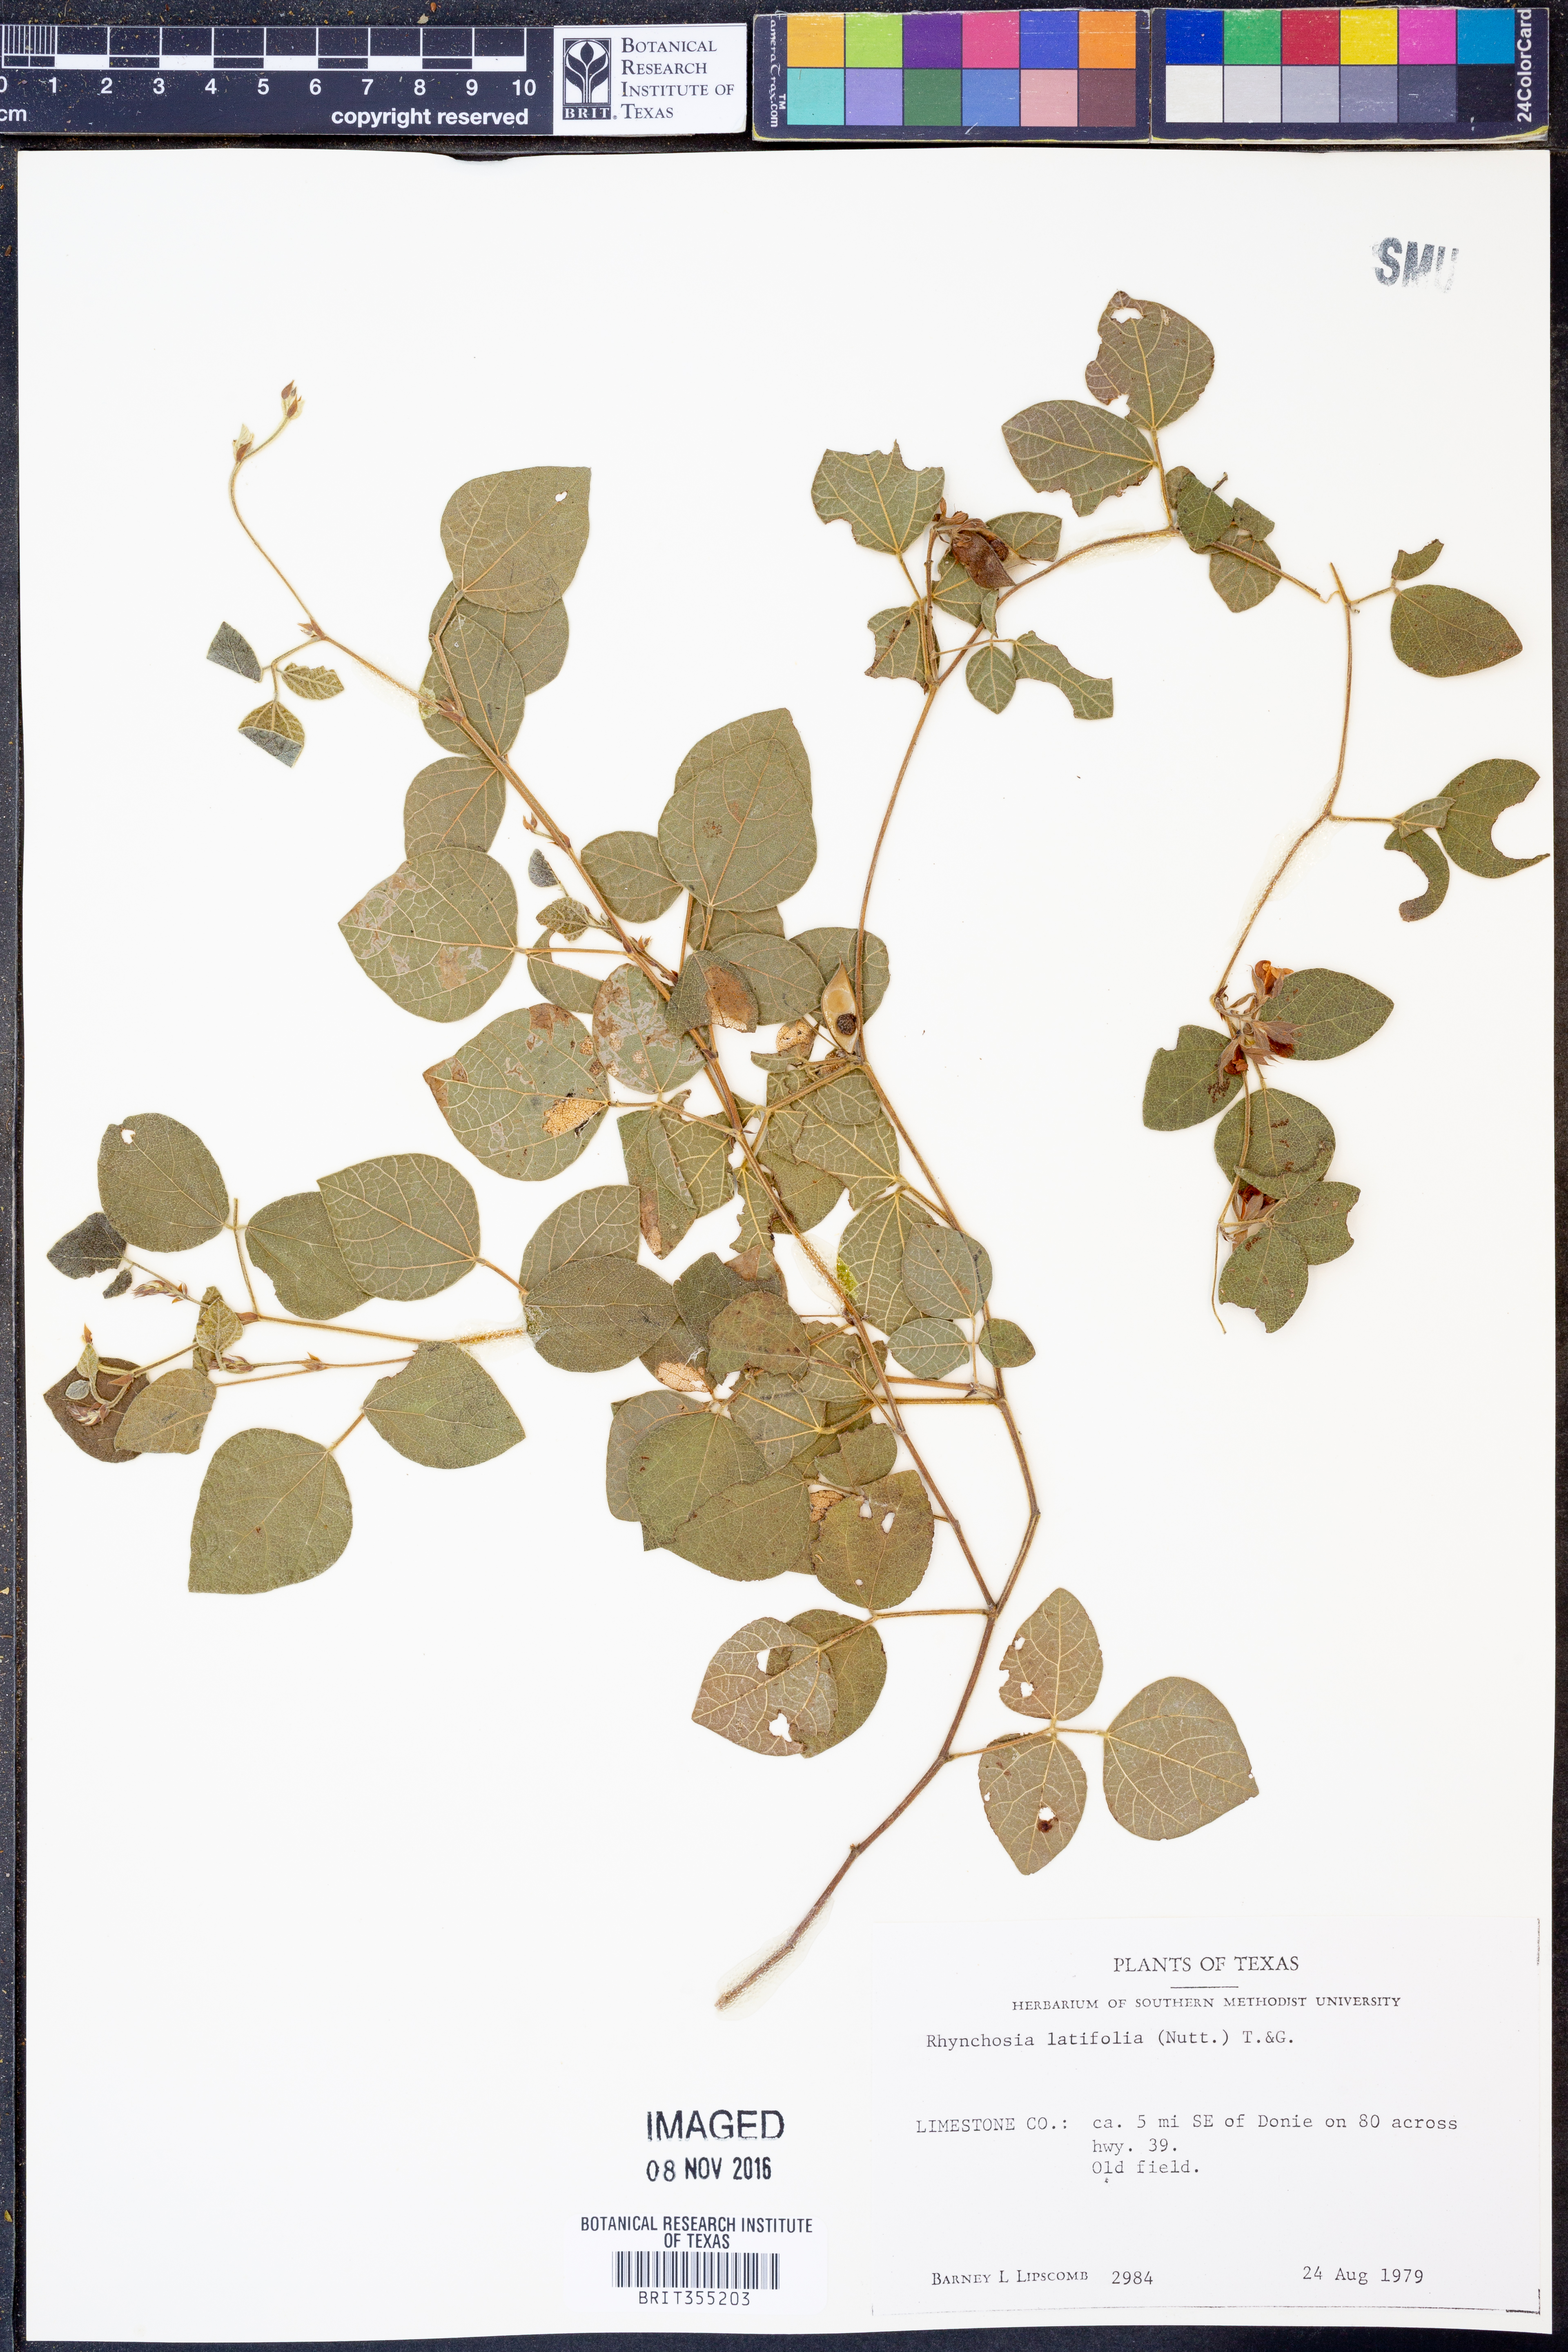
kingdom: Plantae
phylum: Tracheophyta
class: Magnoliopsida
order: Fabales
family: Fabaceae
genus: Rhynchosia
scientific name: Rhynchosia latifolia
